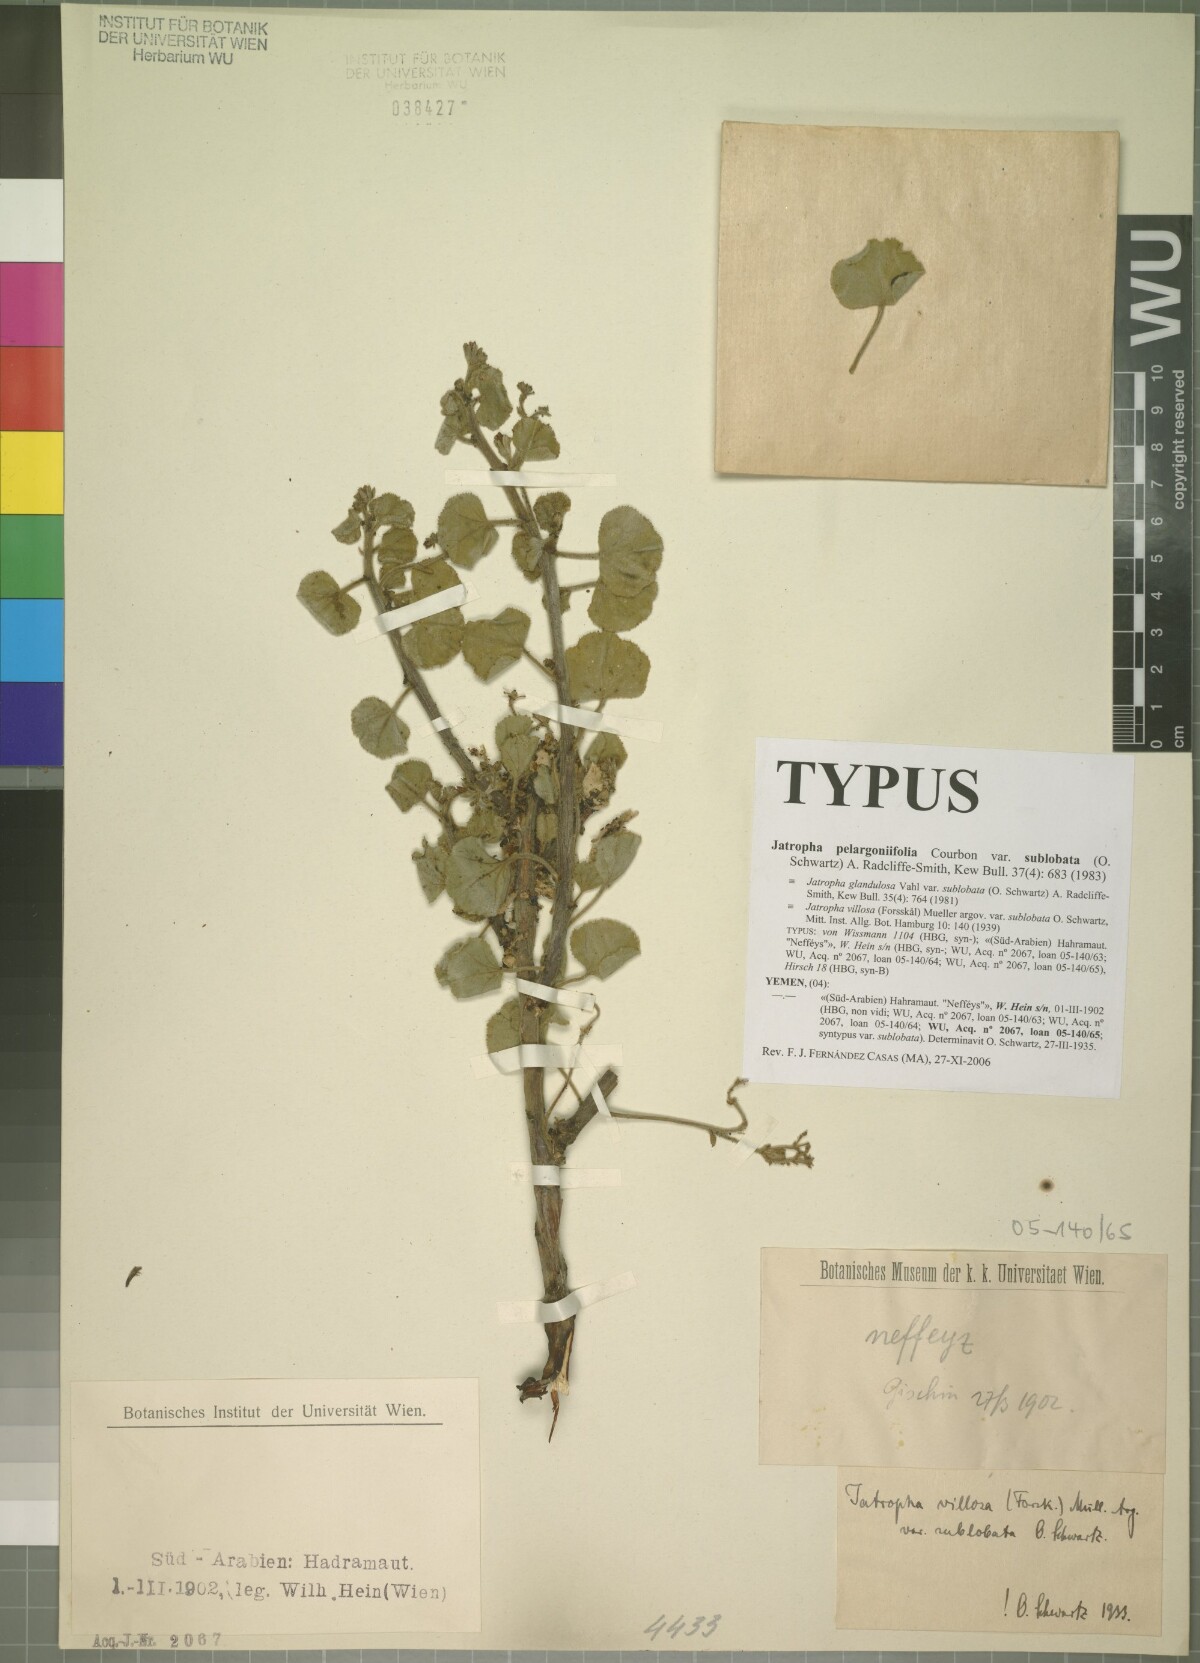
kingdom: Plantae
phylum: Tracheophyta
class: Magnoliopsida
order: Malpighiales
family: Euphorbiaceae
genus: Jatropha
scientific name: Jatropha pelargoniifolia
